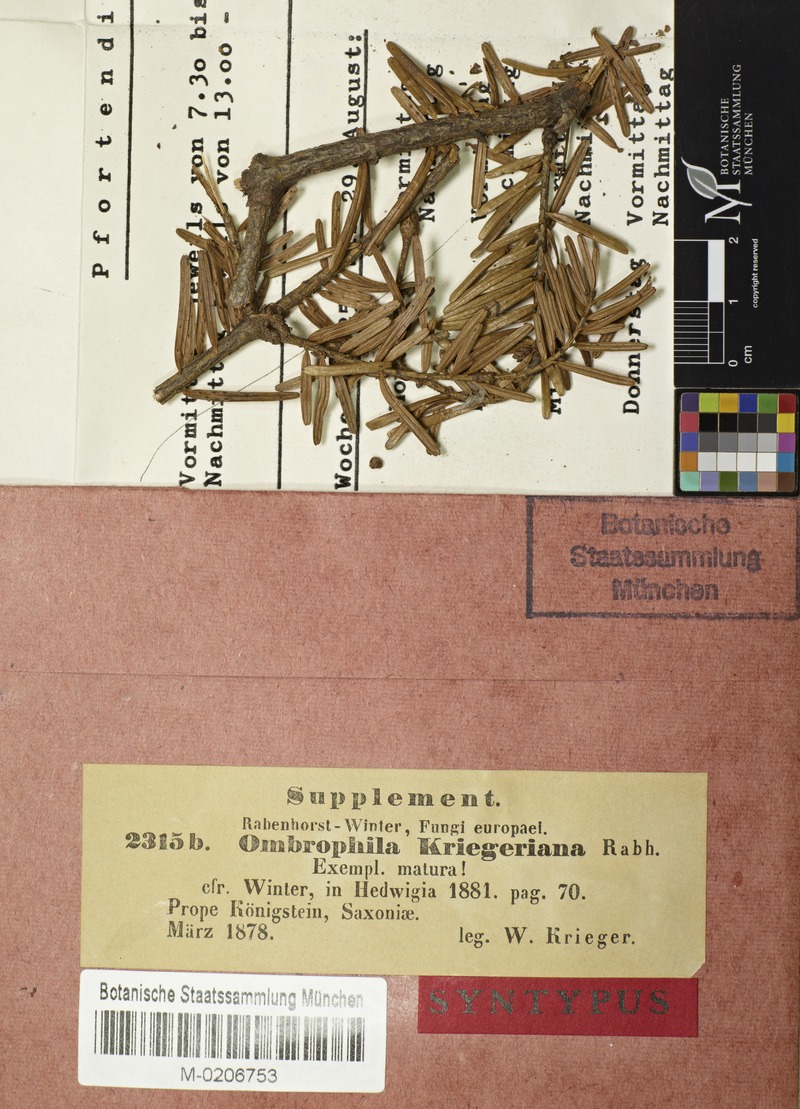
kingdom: Fungi
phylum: Ascomycota
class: Leotiomycetes
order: Helotiales
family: Rutstroemiaceae
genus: Rutstroemia
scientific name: Rutstroemia elatina
